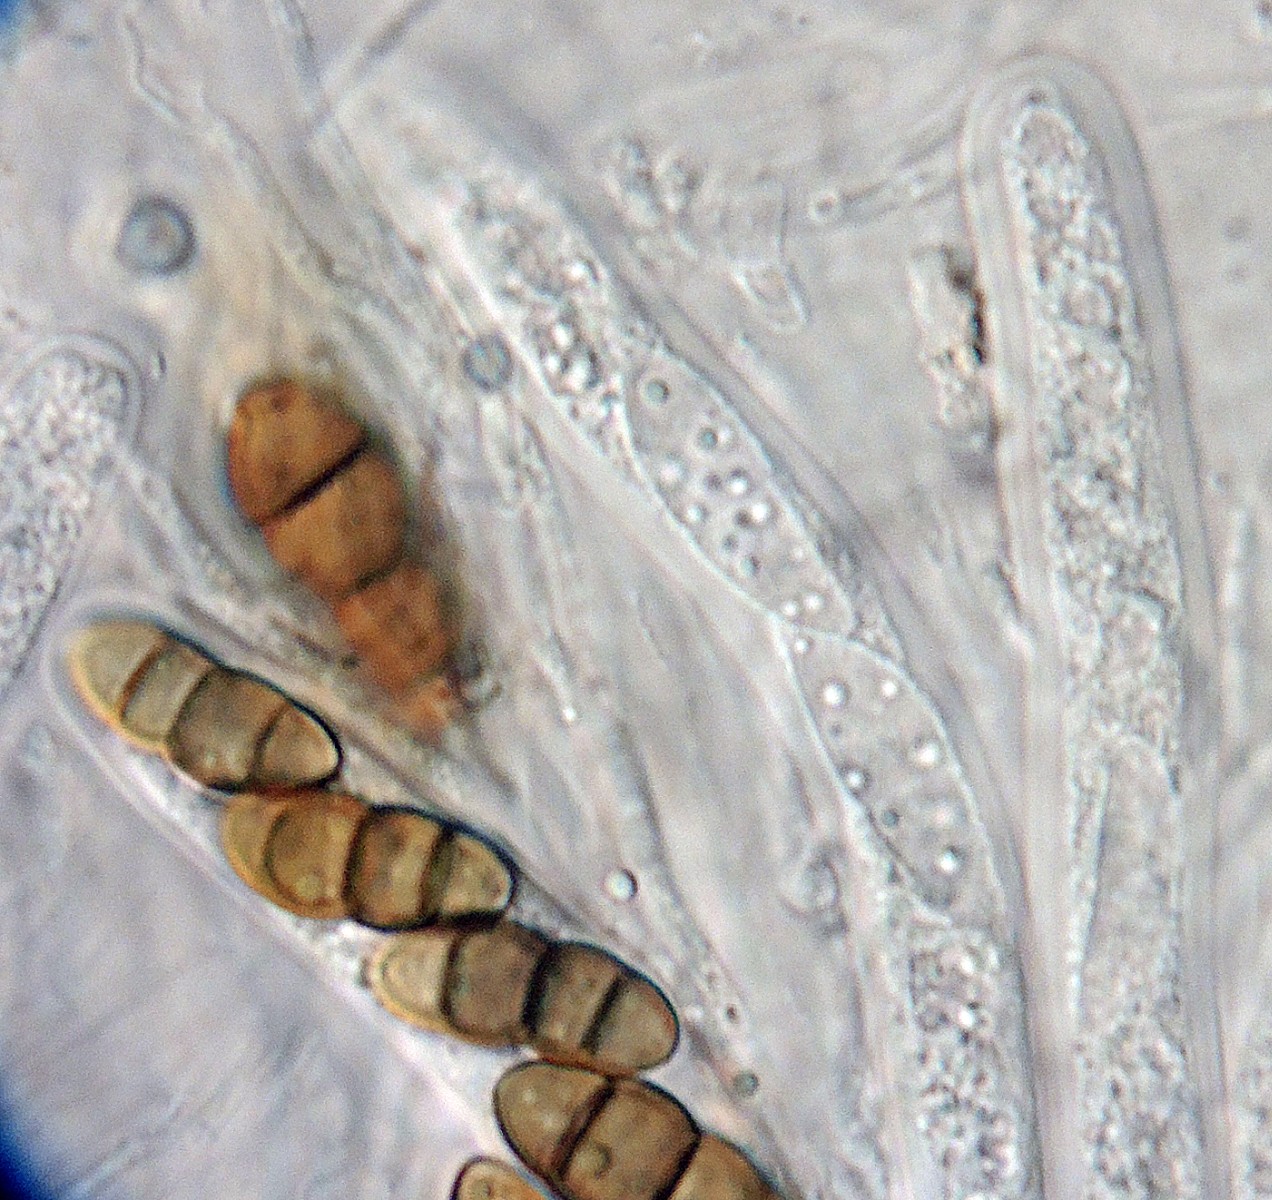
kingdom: Fungi
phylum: Ascomycota
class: Dothideomycetes
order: Pleosporales
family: Teichosporaceae
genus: Magnibotryascoma
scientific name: Magnibotryascoma rubriostiolatum
